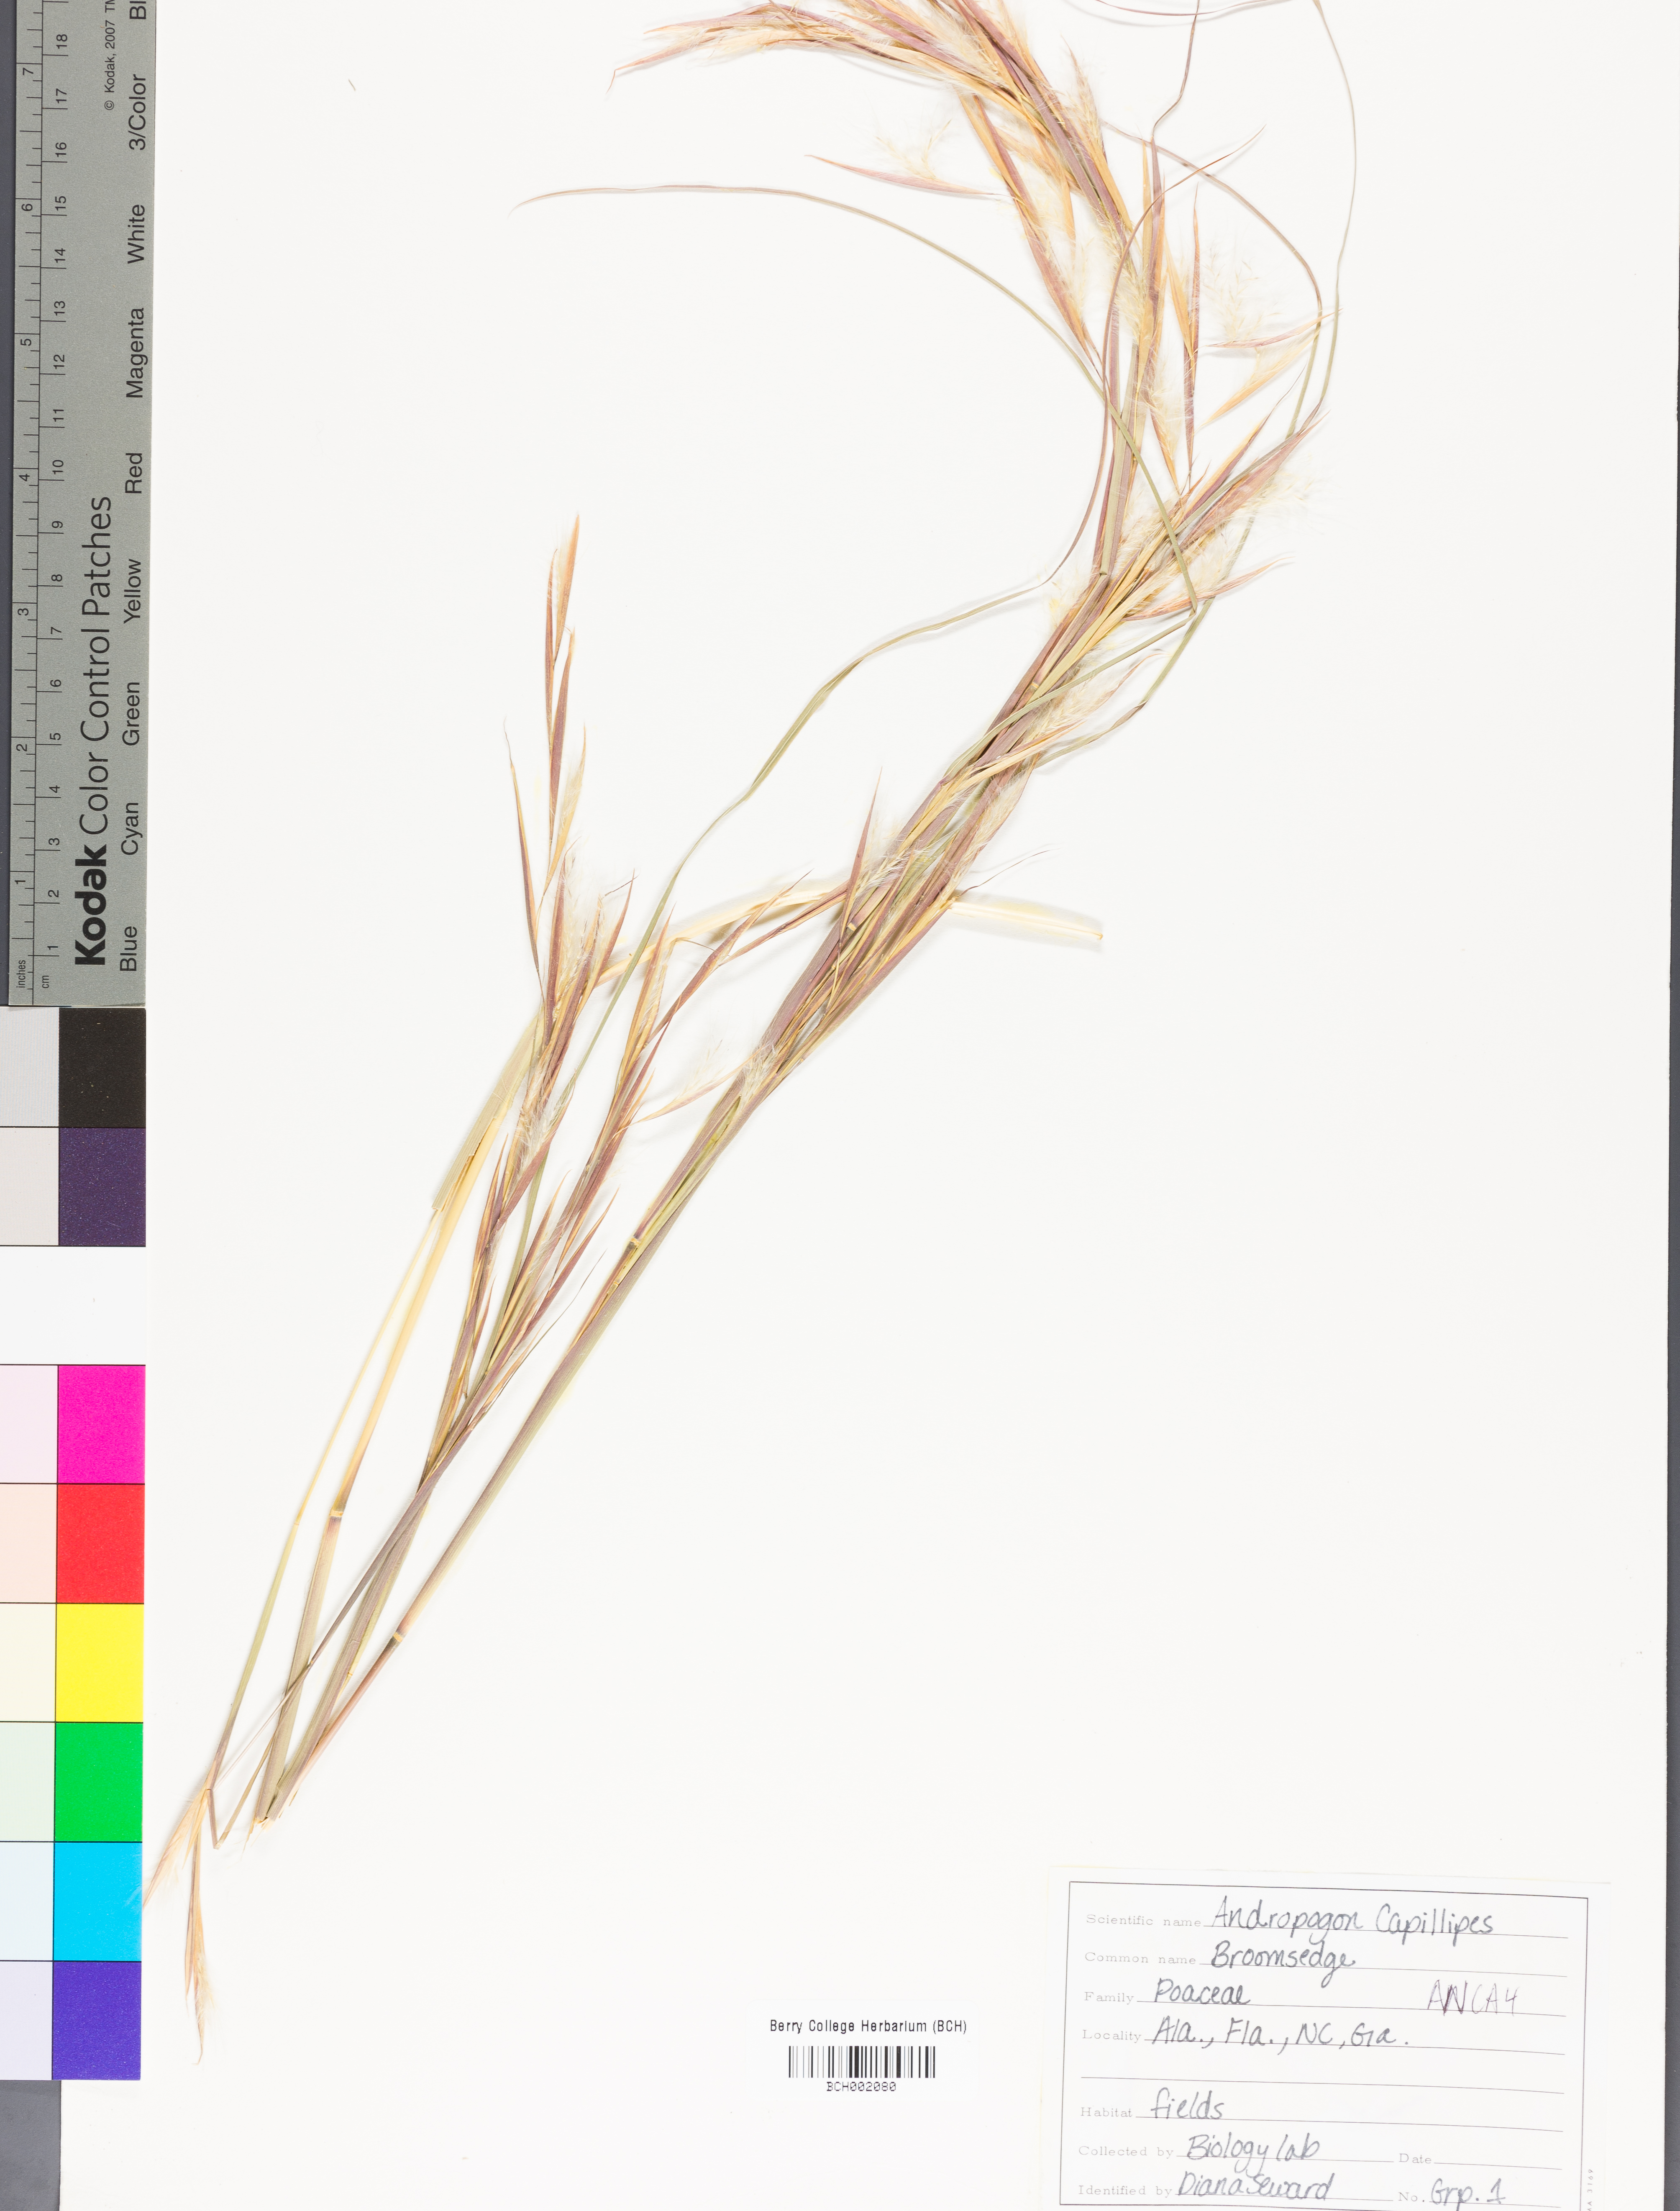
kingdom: Plantae
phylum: Tracheophyta
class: Liliopsida
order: Poales
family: Poaceae
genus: Andropogon
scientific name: Andropogon capillipes
